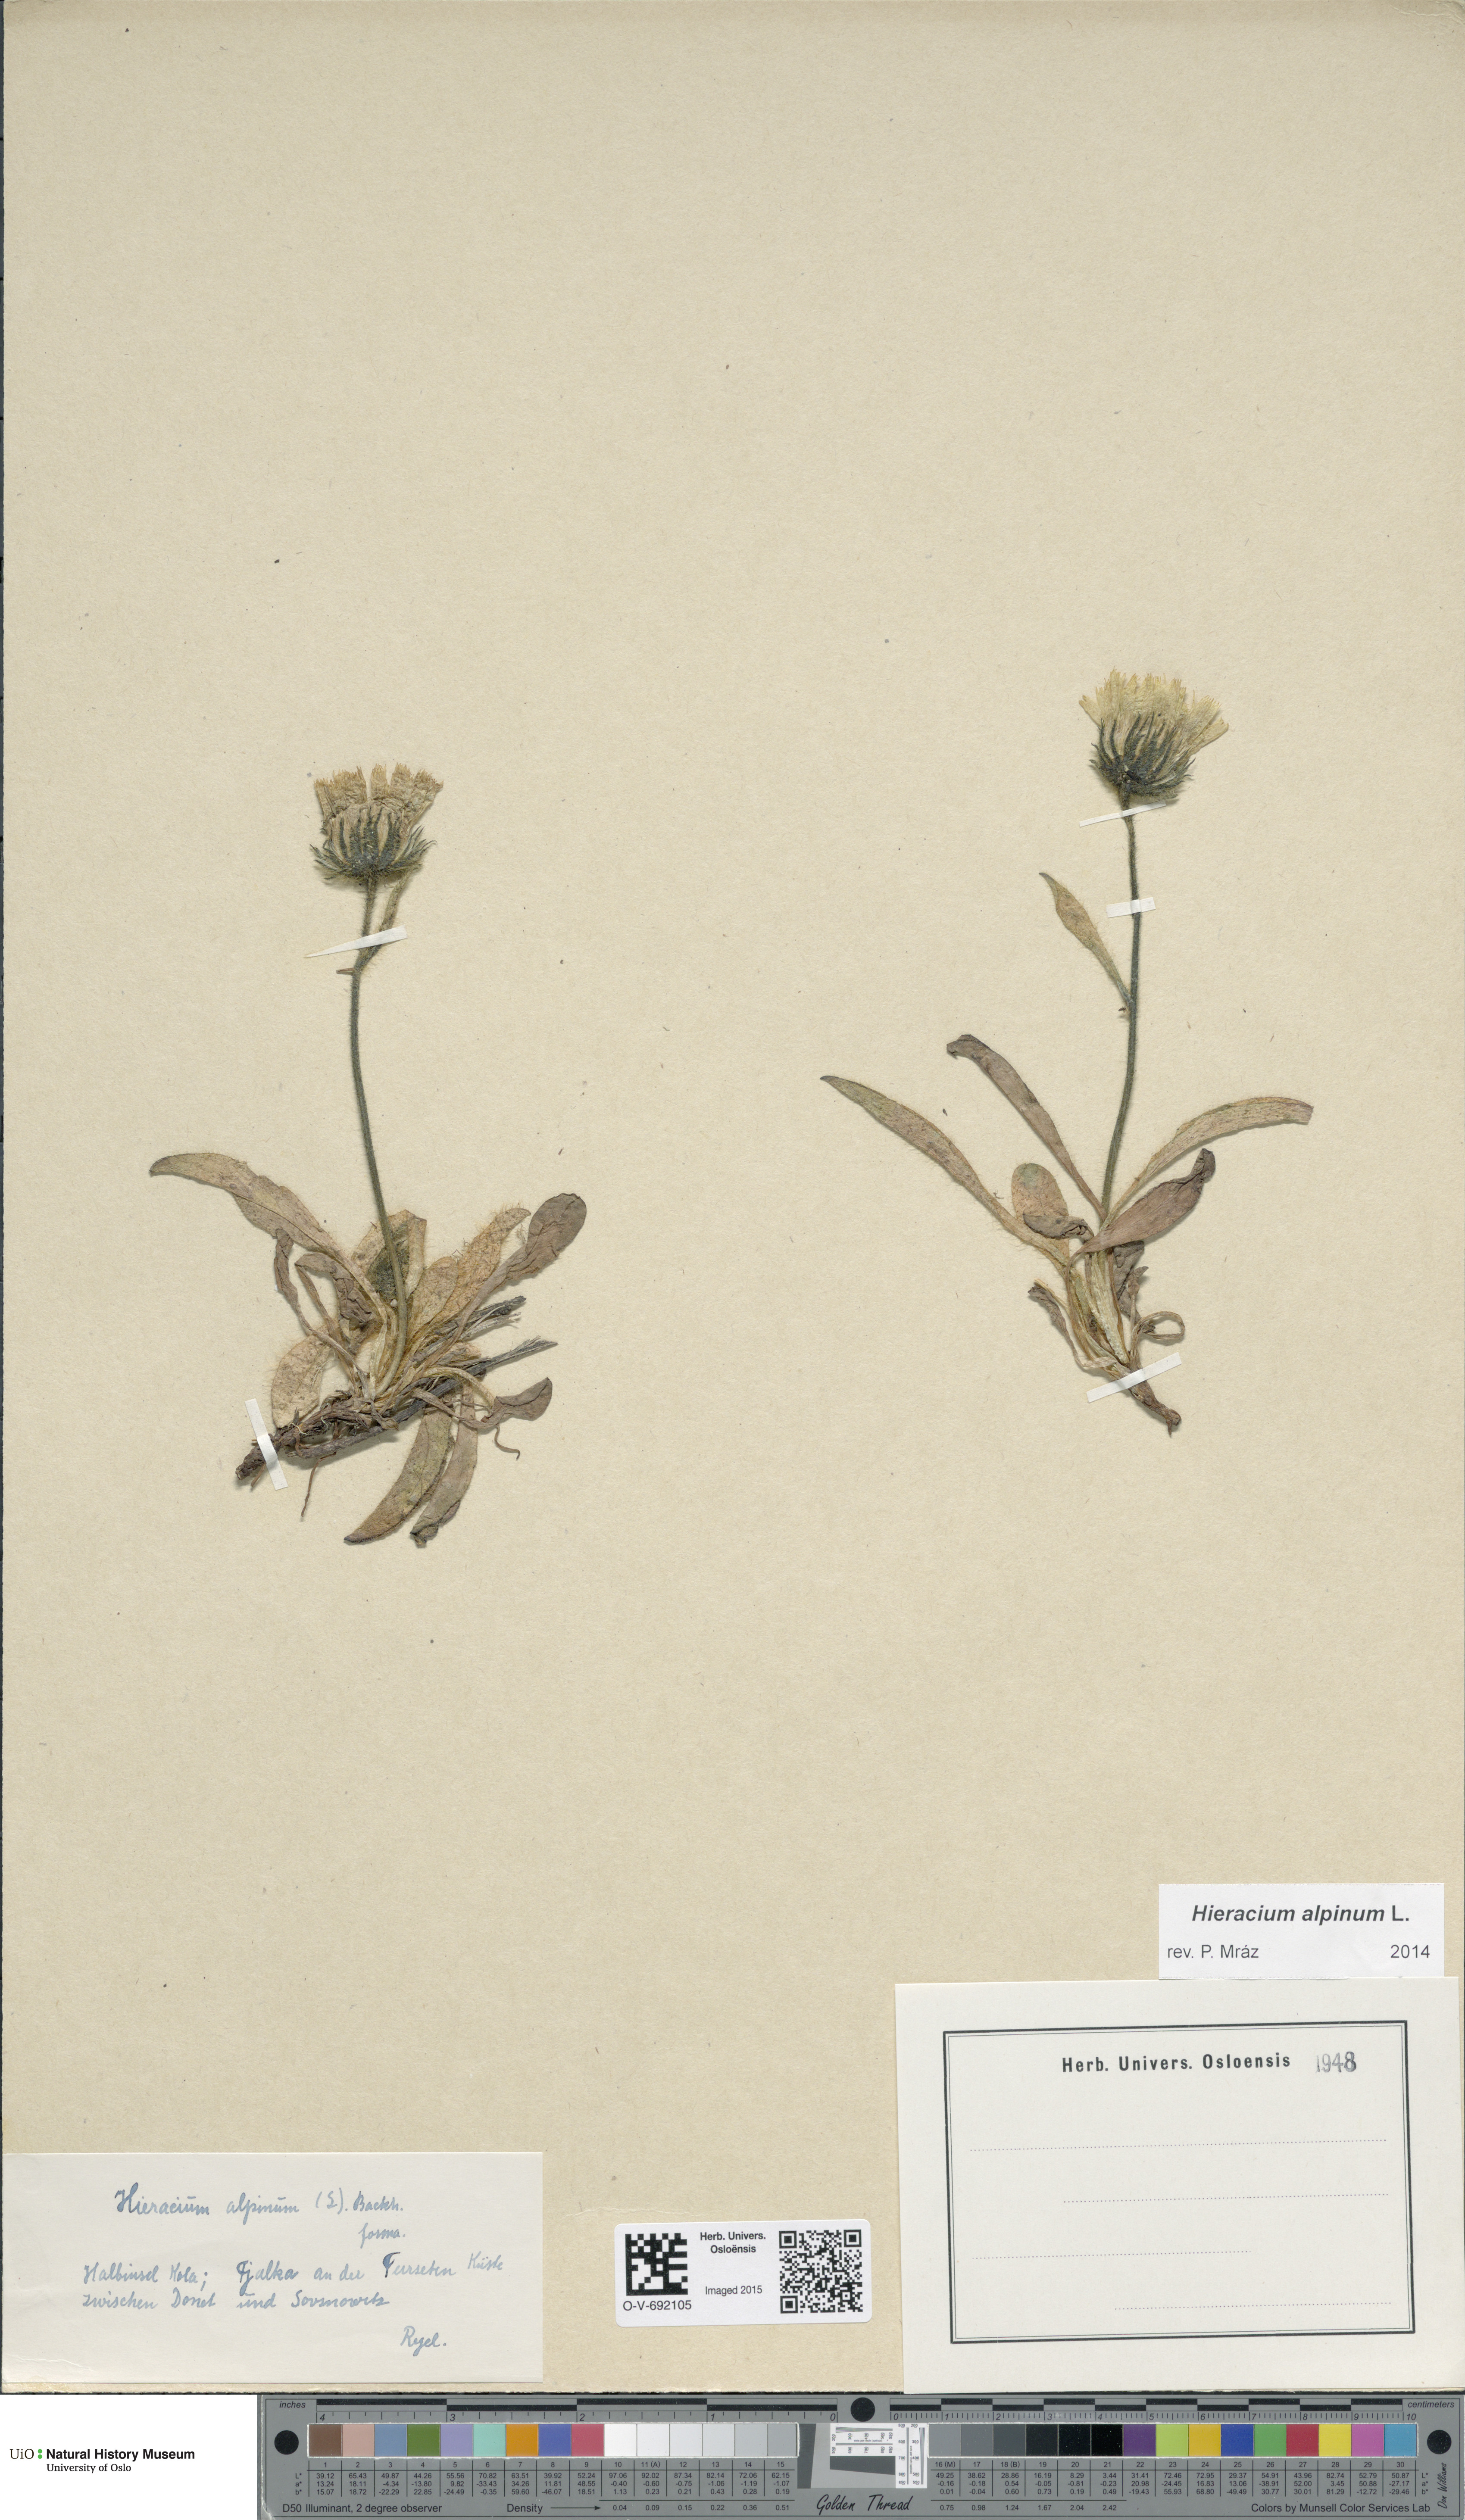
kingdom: Plantae
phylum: Tracheophyta
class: Magnoliopsida
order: Asterales
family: Asteraceae
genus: Hieracium
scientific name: Hieracium alpinum
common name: Alpine hawkweed
